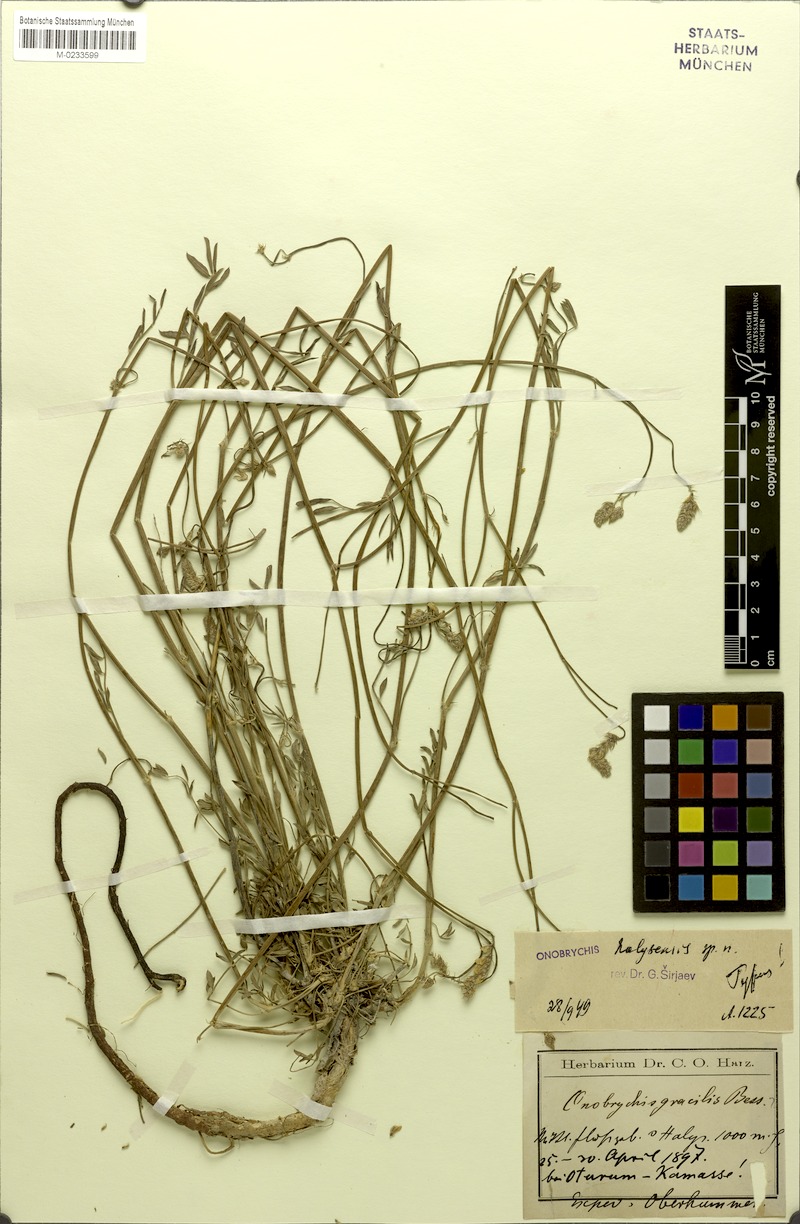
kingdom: Plantae
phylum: Tracheophyta
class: Magnoliopsida
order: Fabales
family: Fabaceae
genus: Onobrychis
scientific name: Onobrychis halysensis
